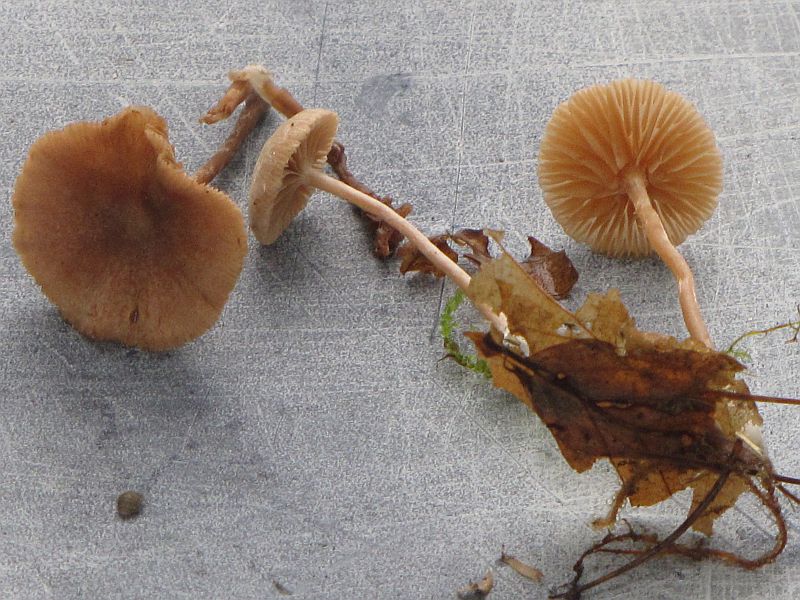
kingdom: Fungi
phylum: Basidiomycota
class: Agaricomycetes
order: Agaricales
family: Tubariaceae
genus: Tubaria
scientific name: Tubaria conspersa
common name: bleg fnughat
